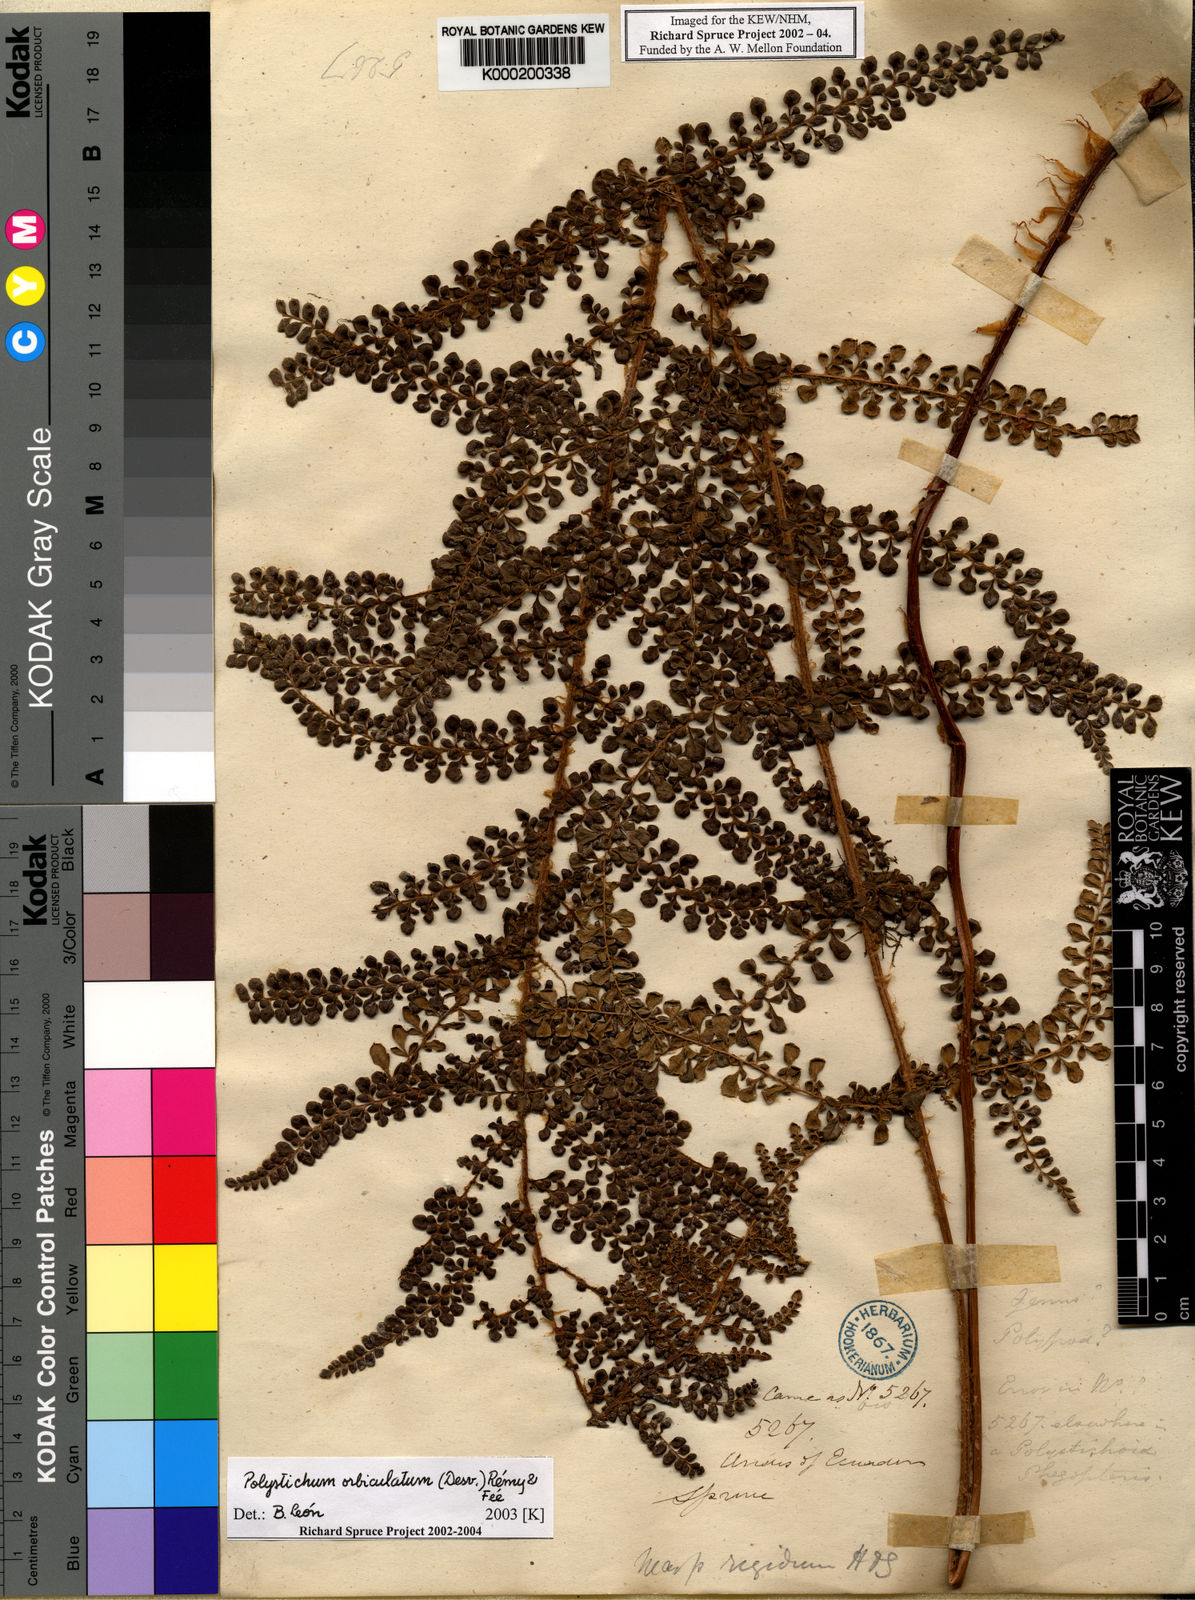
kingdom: Plantae
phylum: Tracheophyta
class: Polypodiopsida
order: Polypodiales
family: Dryopteridaceae
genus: Polystichum
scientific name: Polystichum
